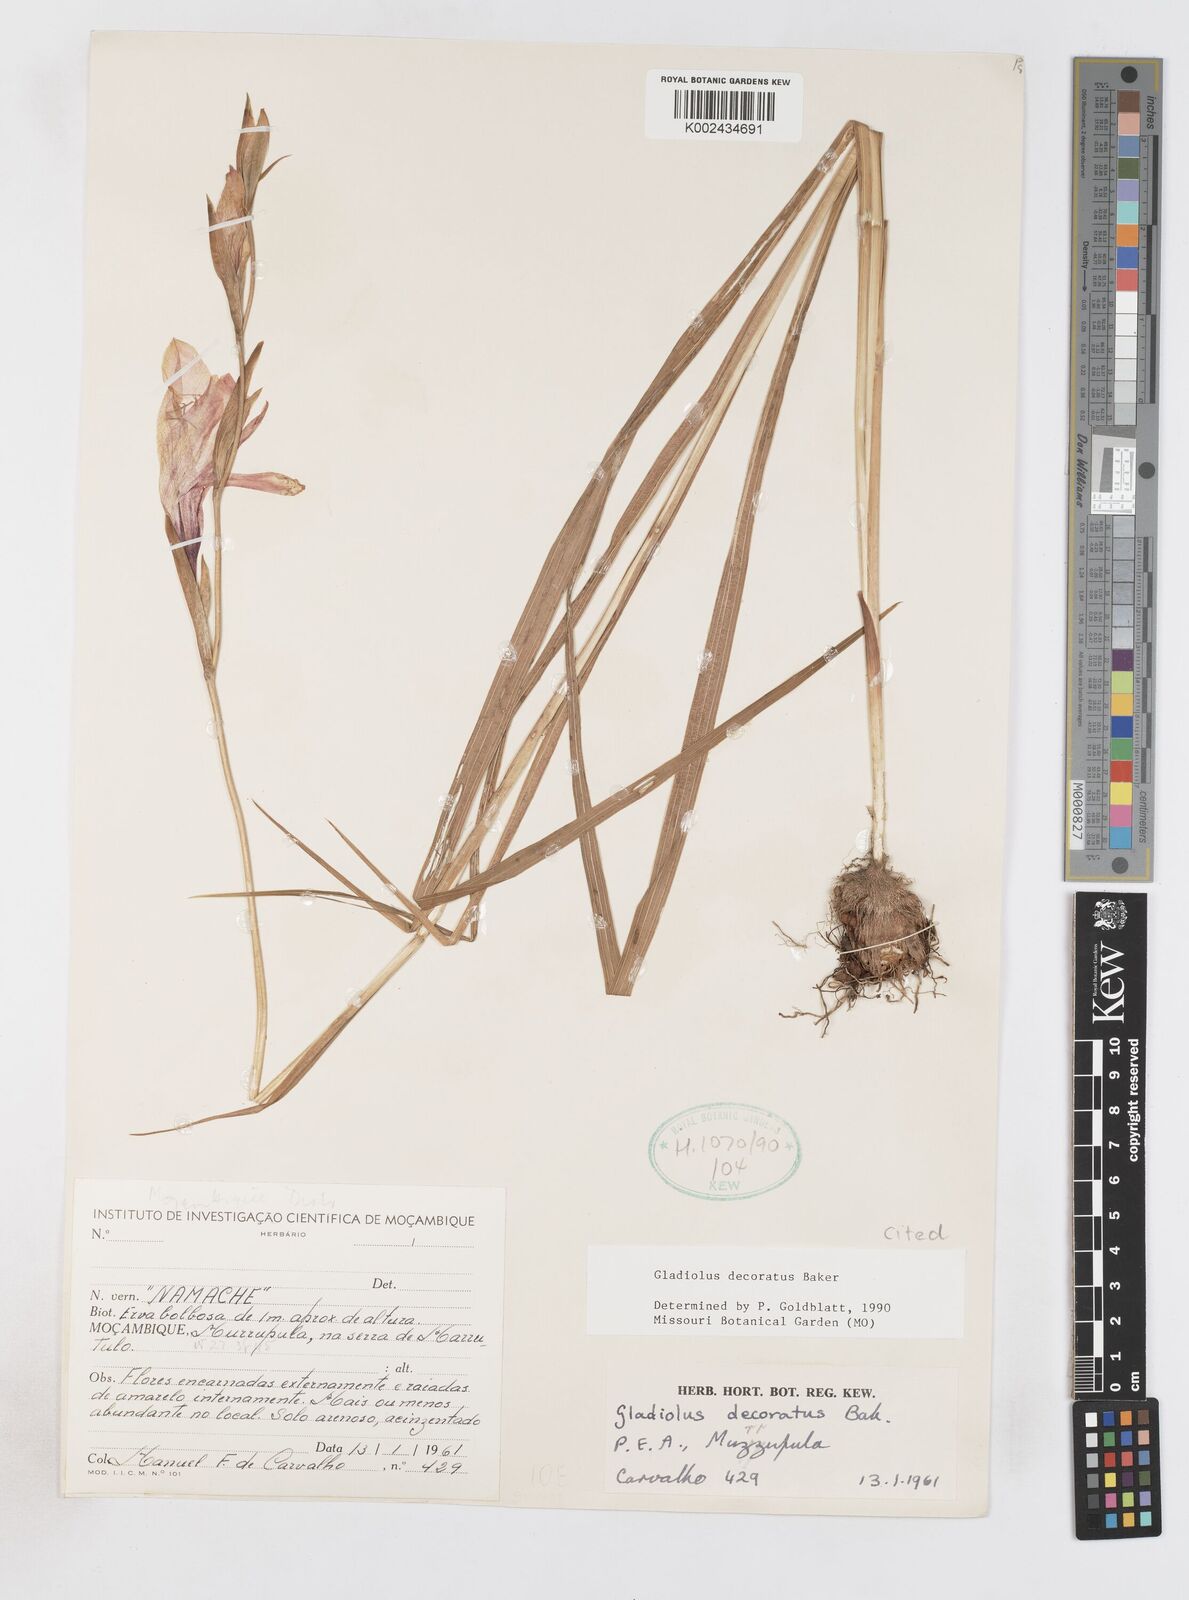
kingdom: Plantae
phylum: Tracheophyta
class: Liliopsida
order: Asparagales
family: Iridaceae
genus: Gladiolus
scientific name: Gladiolus decoratus
